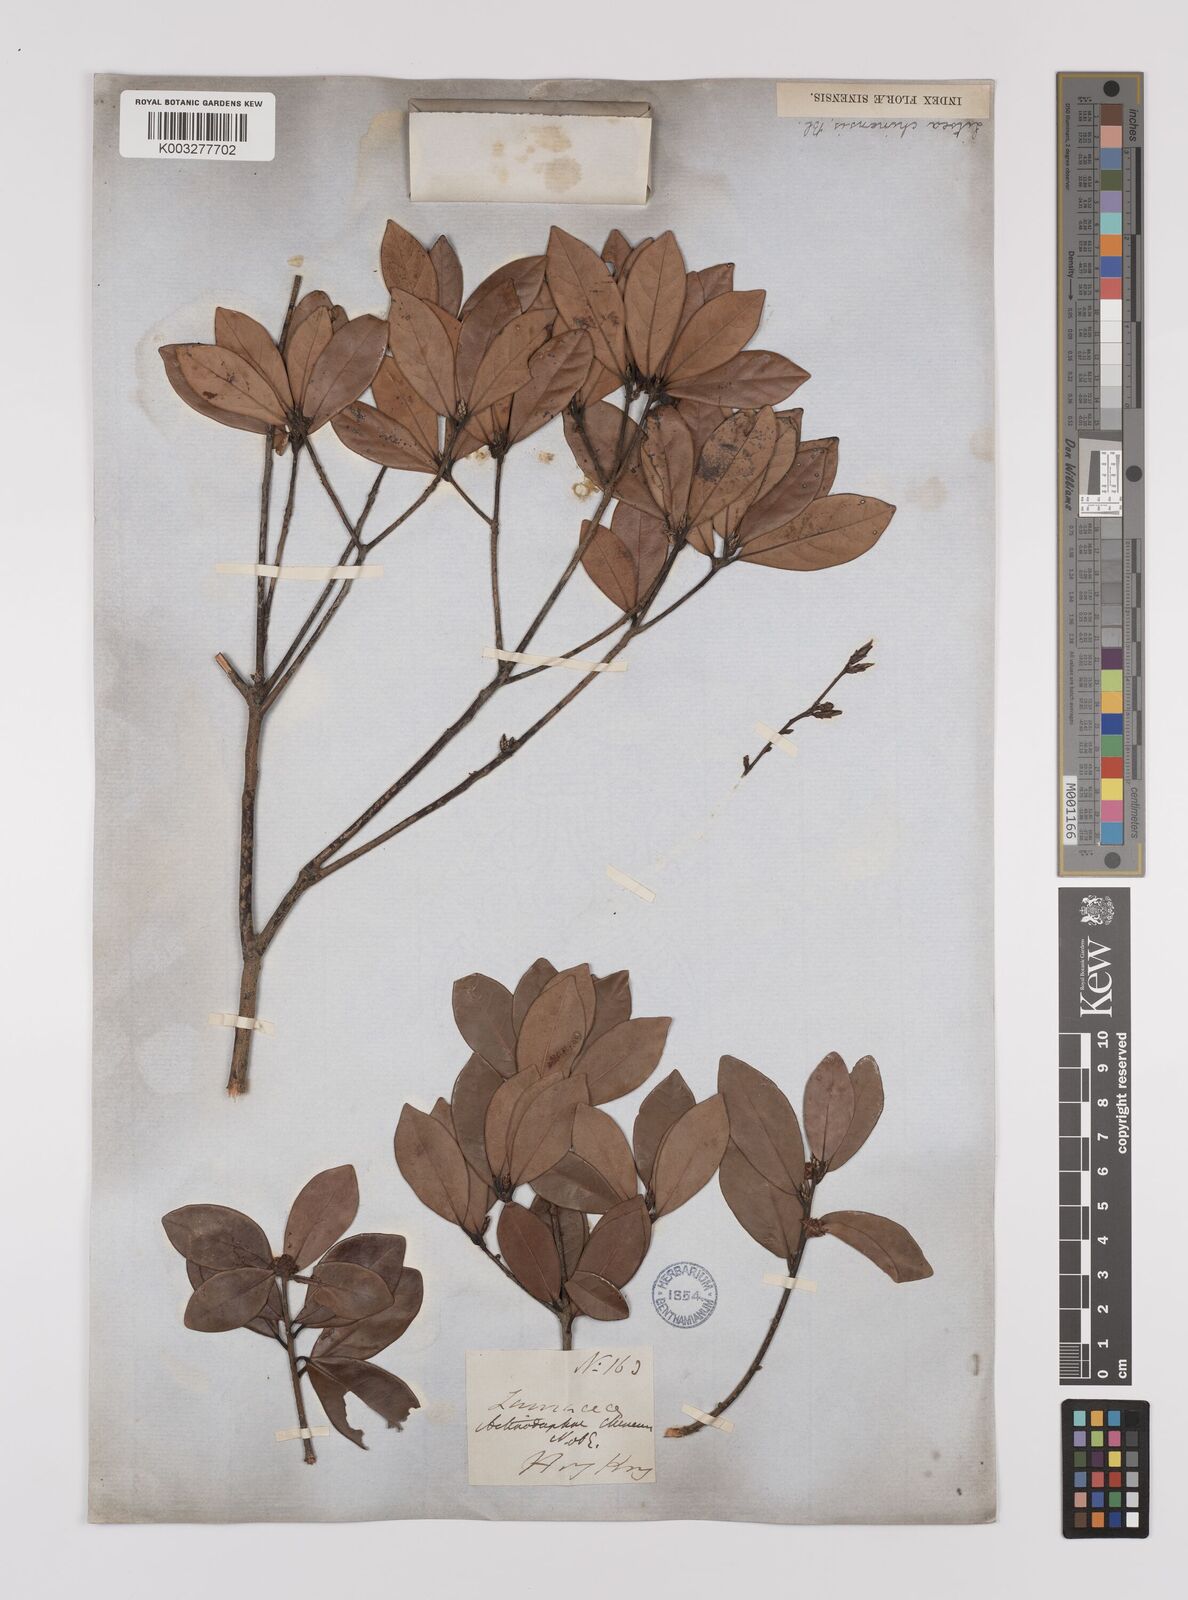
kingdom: Plantae
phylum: Tracheophyta
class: Magnoliopsida
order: Laurales
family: Lauraceae
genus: Litsea
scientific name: Litsea rotundifolia
